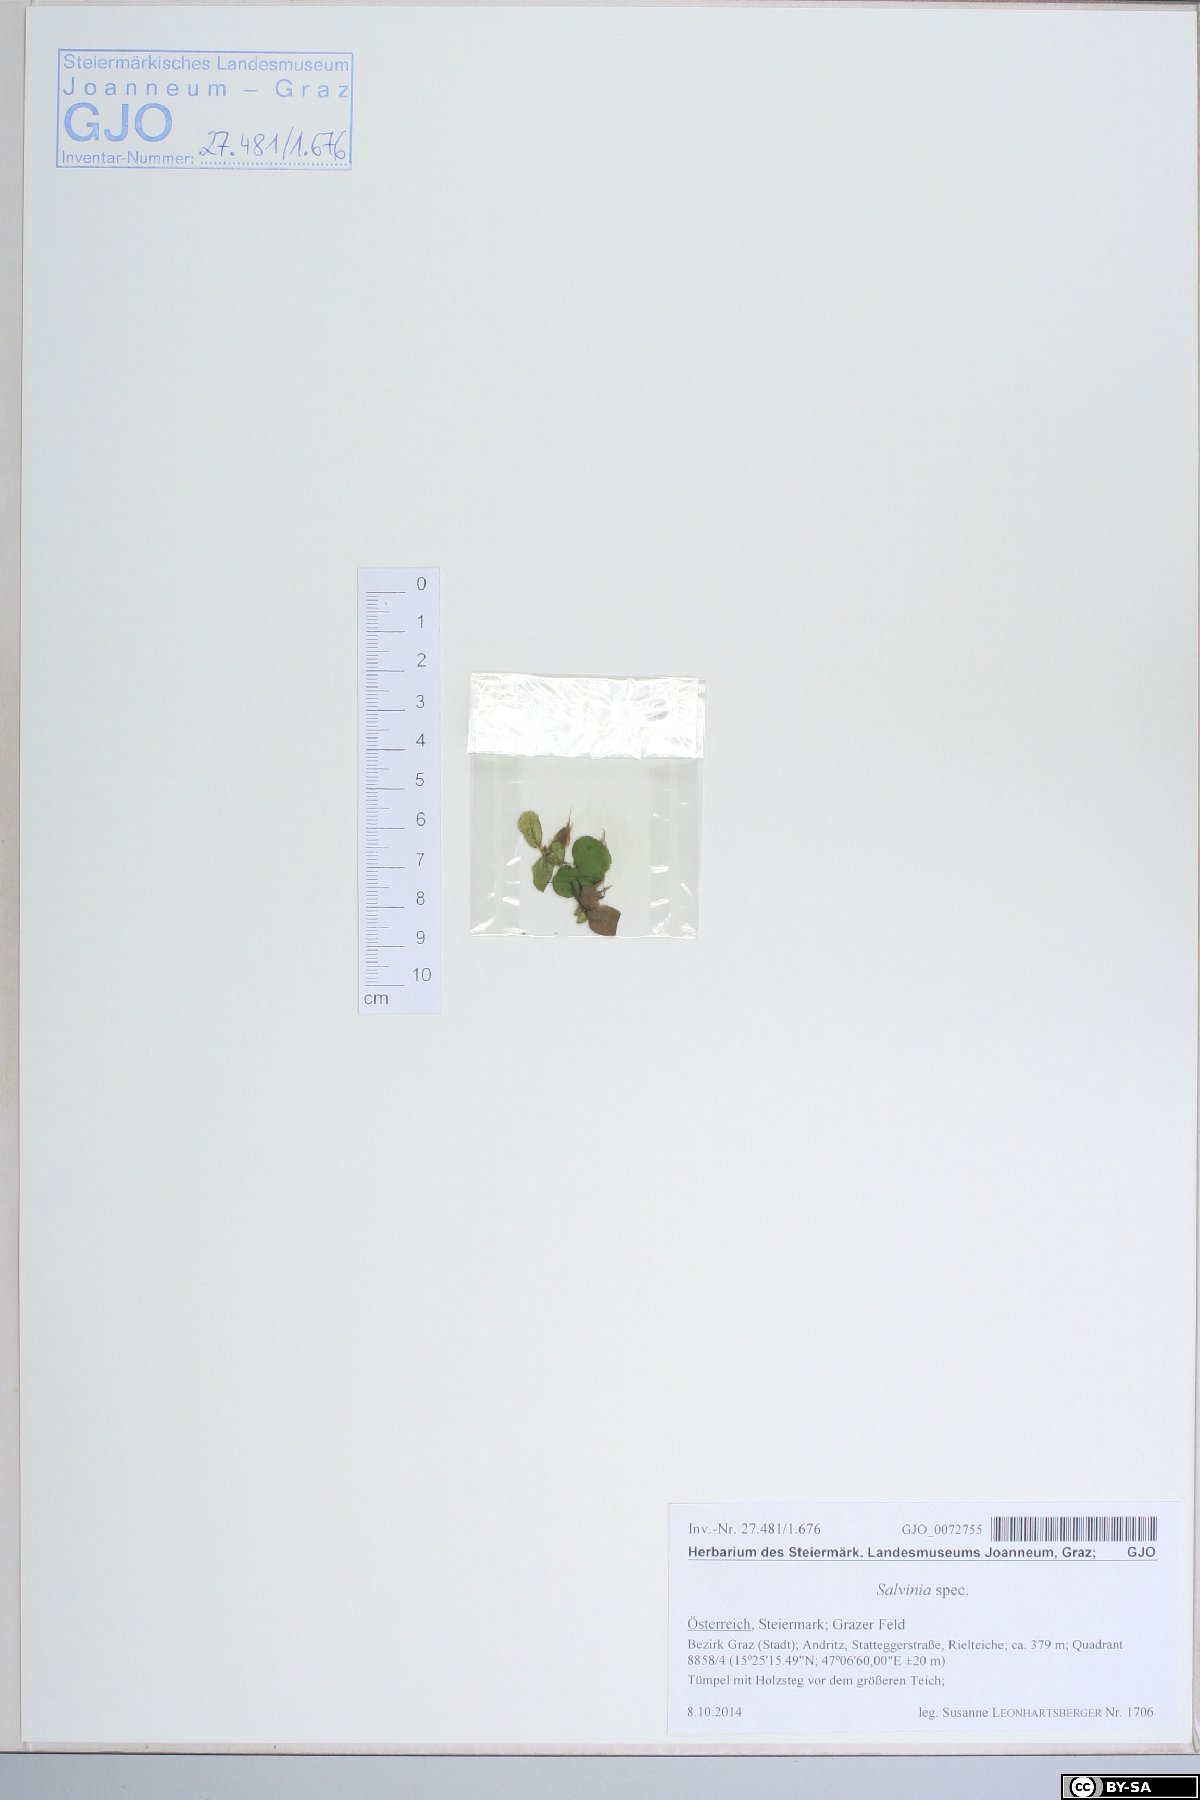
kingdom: Plantae
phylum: Tracheophyta
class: Polypodiopsida
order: Salviniales
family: Salviniaceae
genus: Salvinia
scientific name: Salvinia natans
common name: Floating fern
